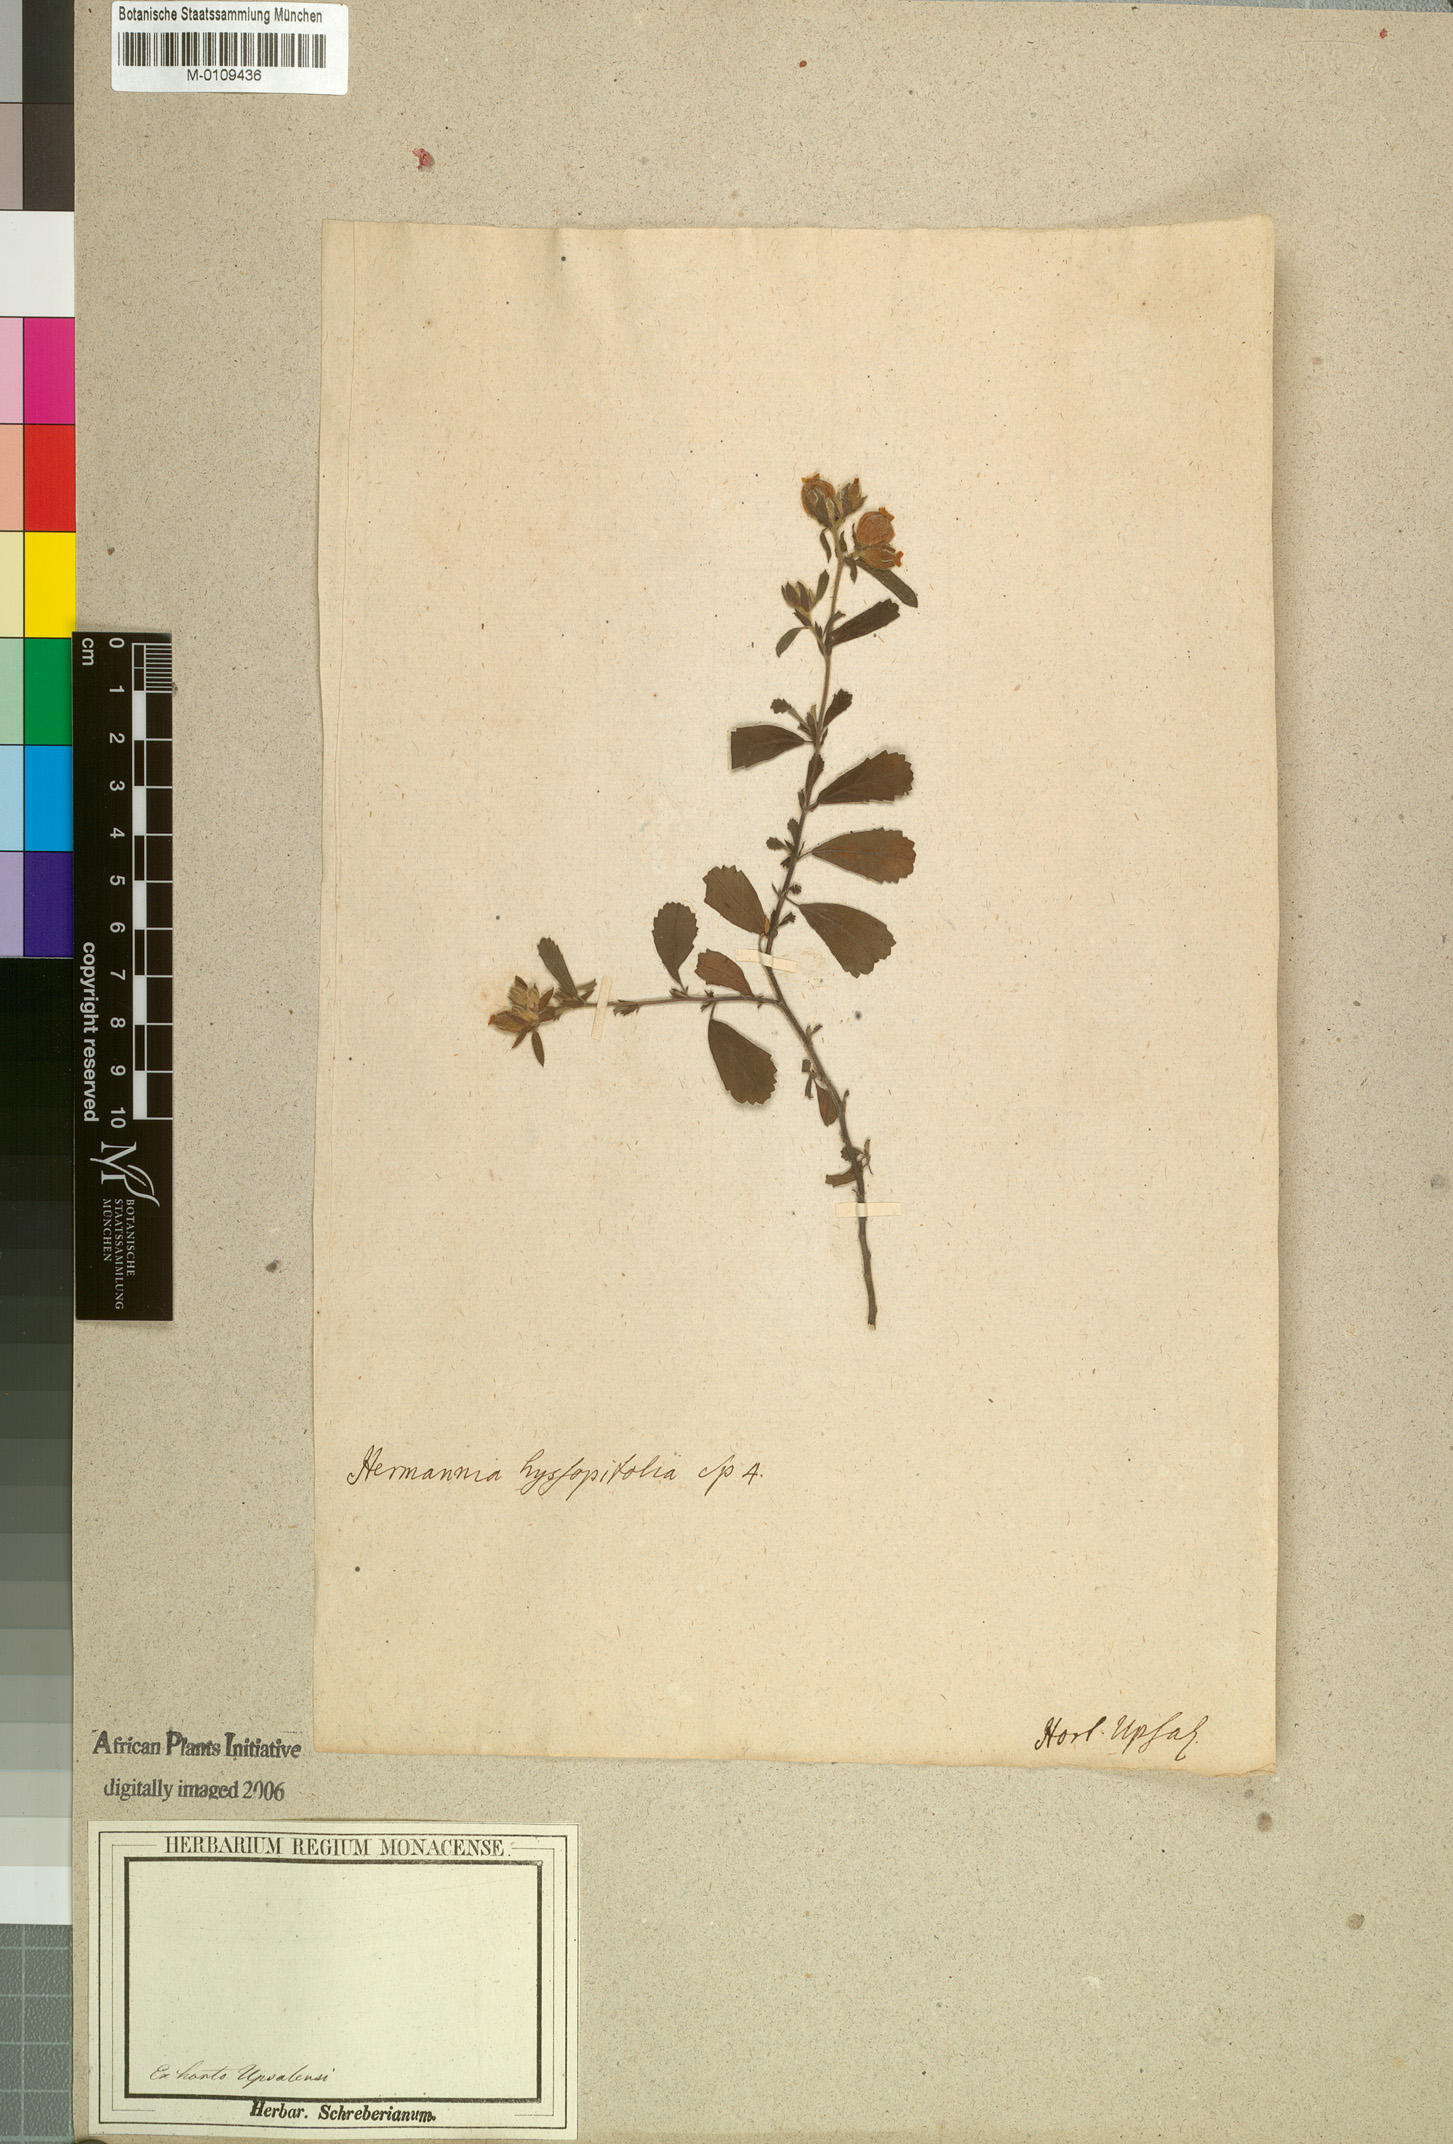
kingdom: Plantae
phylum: Tracheophyta
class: Magnoliopsida
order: Malvales
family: Malvaceae
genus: Hermannia
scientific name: Hermannia hyssopifolia
